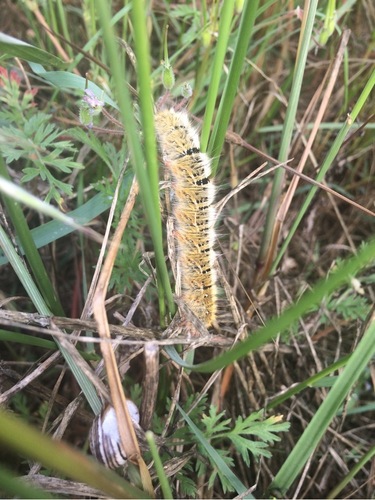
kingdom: Animalia
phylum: Arthropoda
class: Insecta
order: Lepidoptera
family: Lasiocampidae
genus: Lasiocampa
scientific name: Lasiocampa trifolii
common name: Grass eggar
